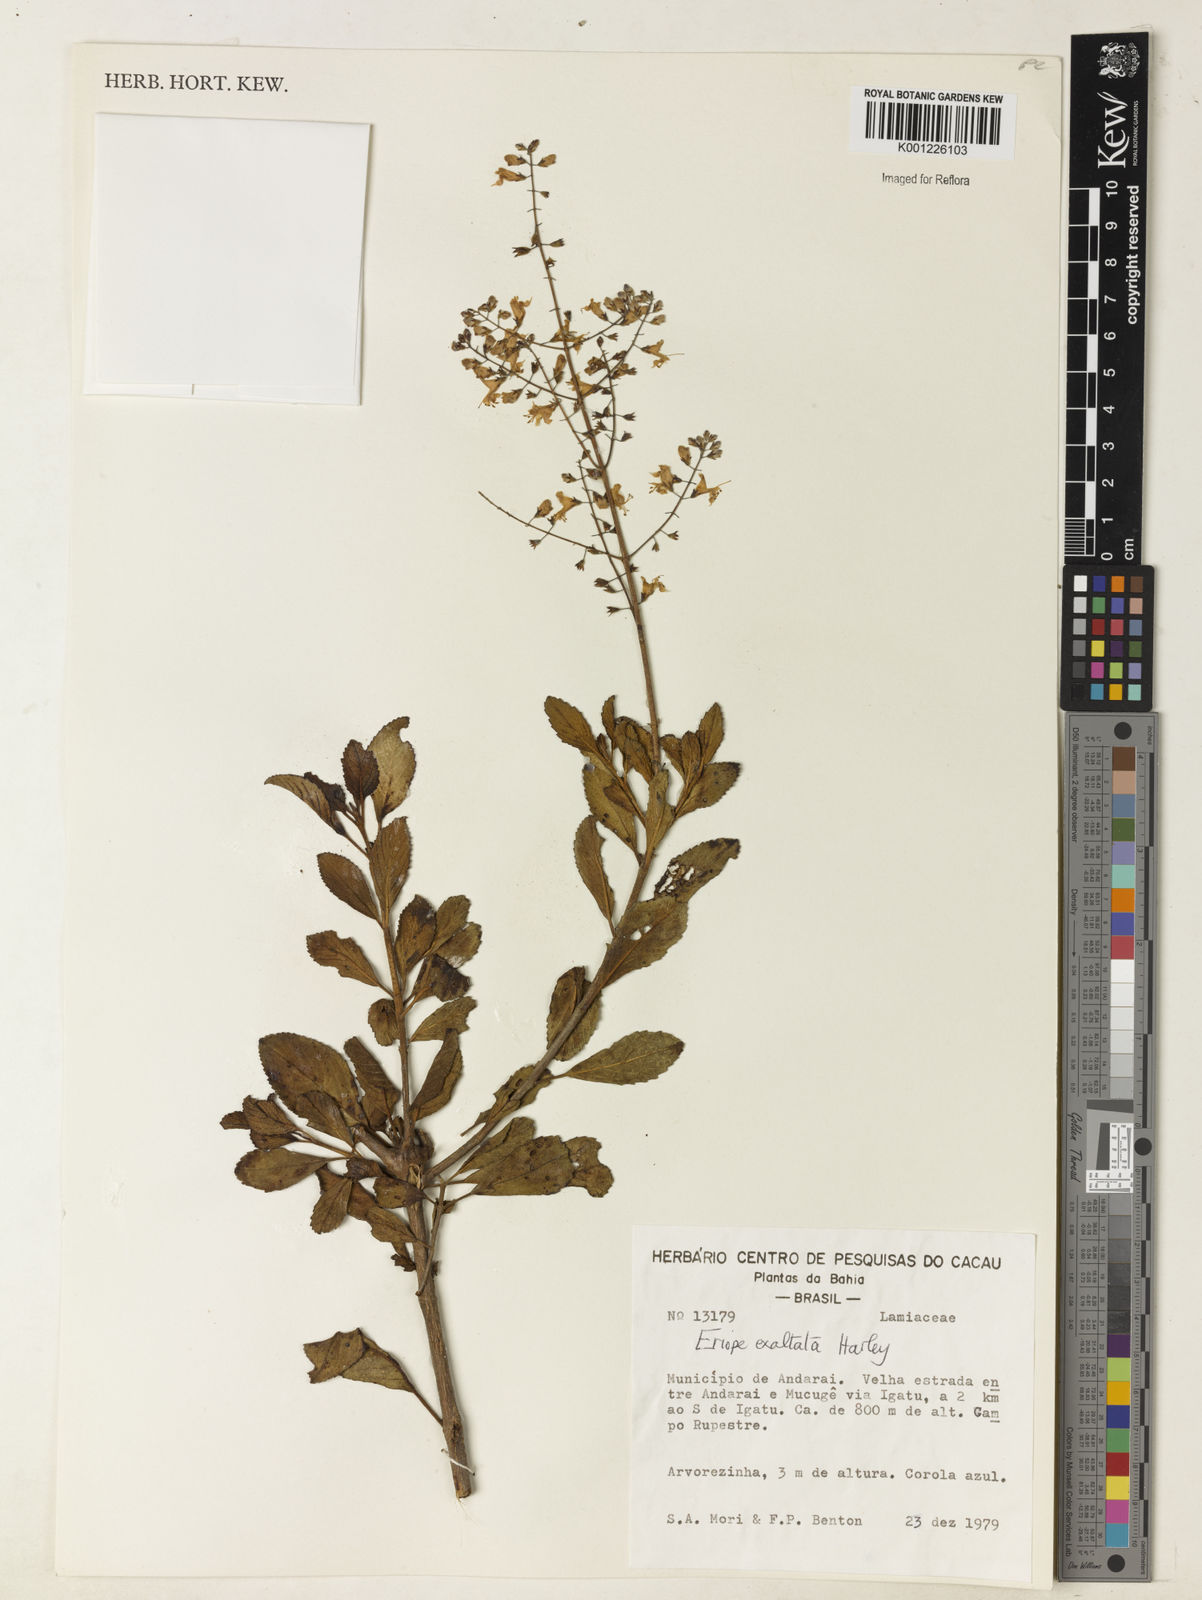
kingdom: Plantae
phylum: Tracheophyta
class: Magnoliopsida
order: Lamiales
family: Lamiaceae
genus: Eriope
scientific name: Eriope exaltata
